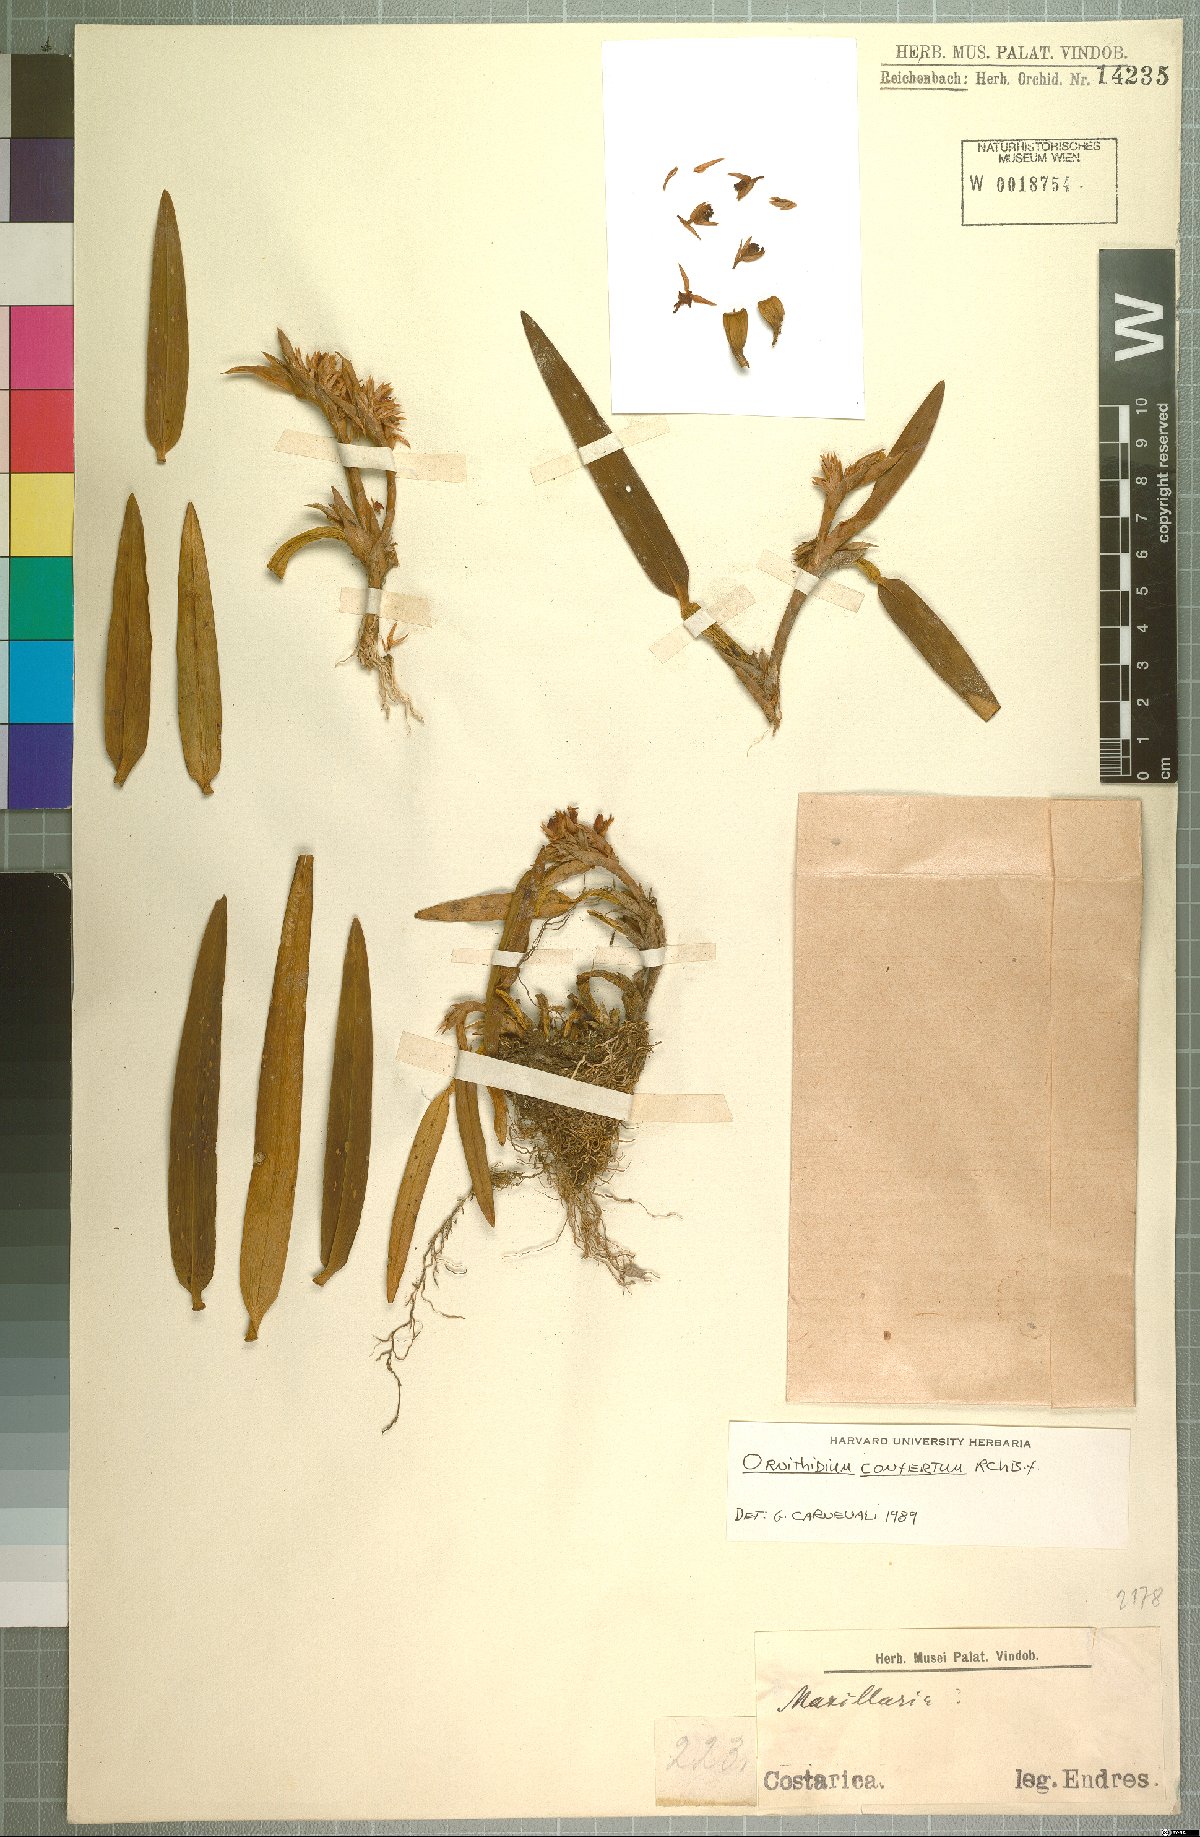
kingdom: Plantae
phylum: Tracheophyta
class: Liliopsida
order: Asparagales
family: Orchidaceae
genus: Maxillaria
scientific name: Maxillaria parviflora
